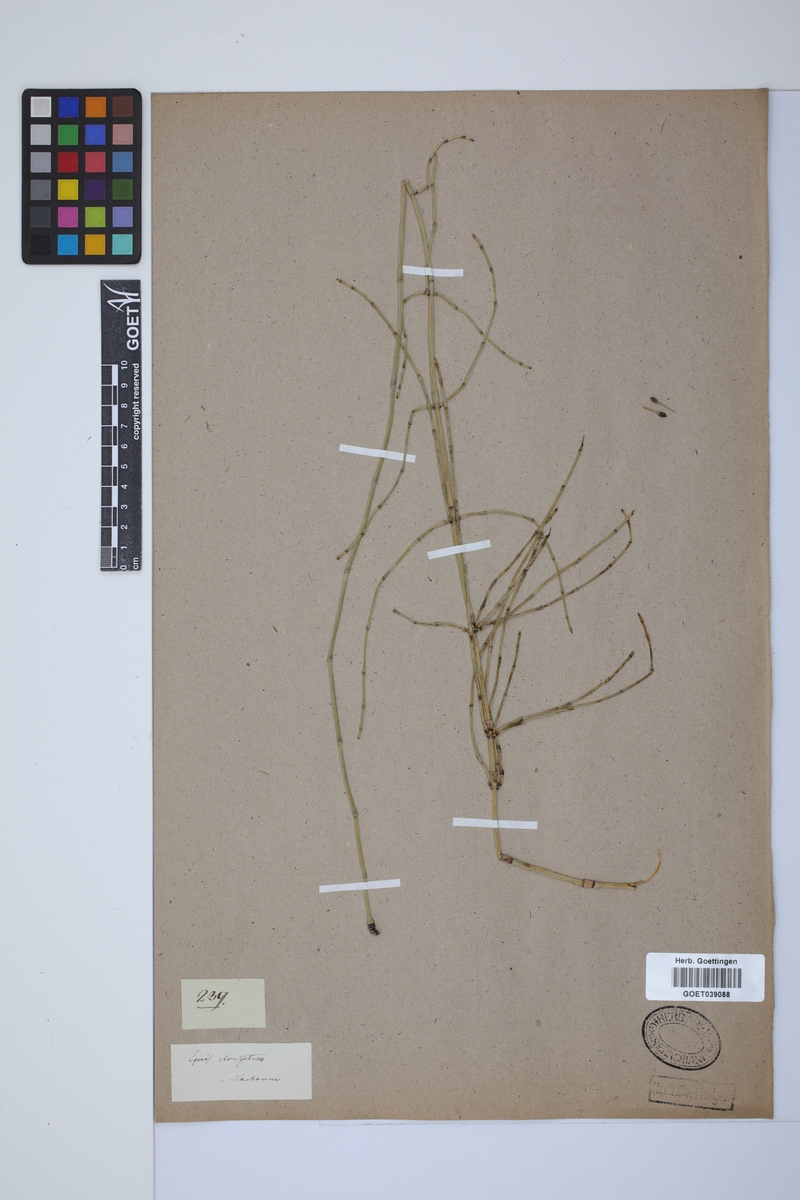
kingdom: Plantae
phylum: Tracheophyta
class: Polypodiopsida
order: Equisetales
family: Equisetaceae
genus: Equisetum
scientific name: Equisetum giganteum
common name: Giant horsetail
